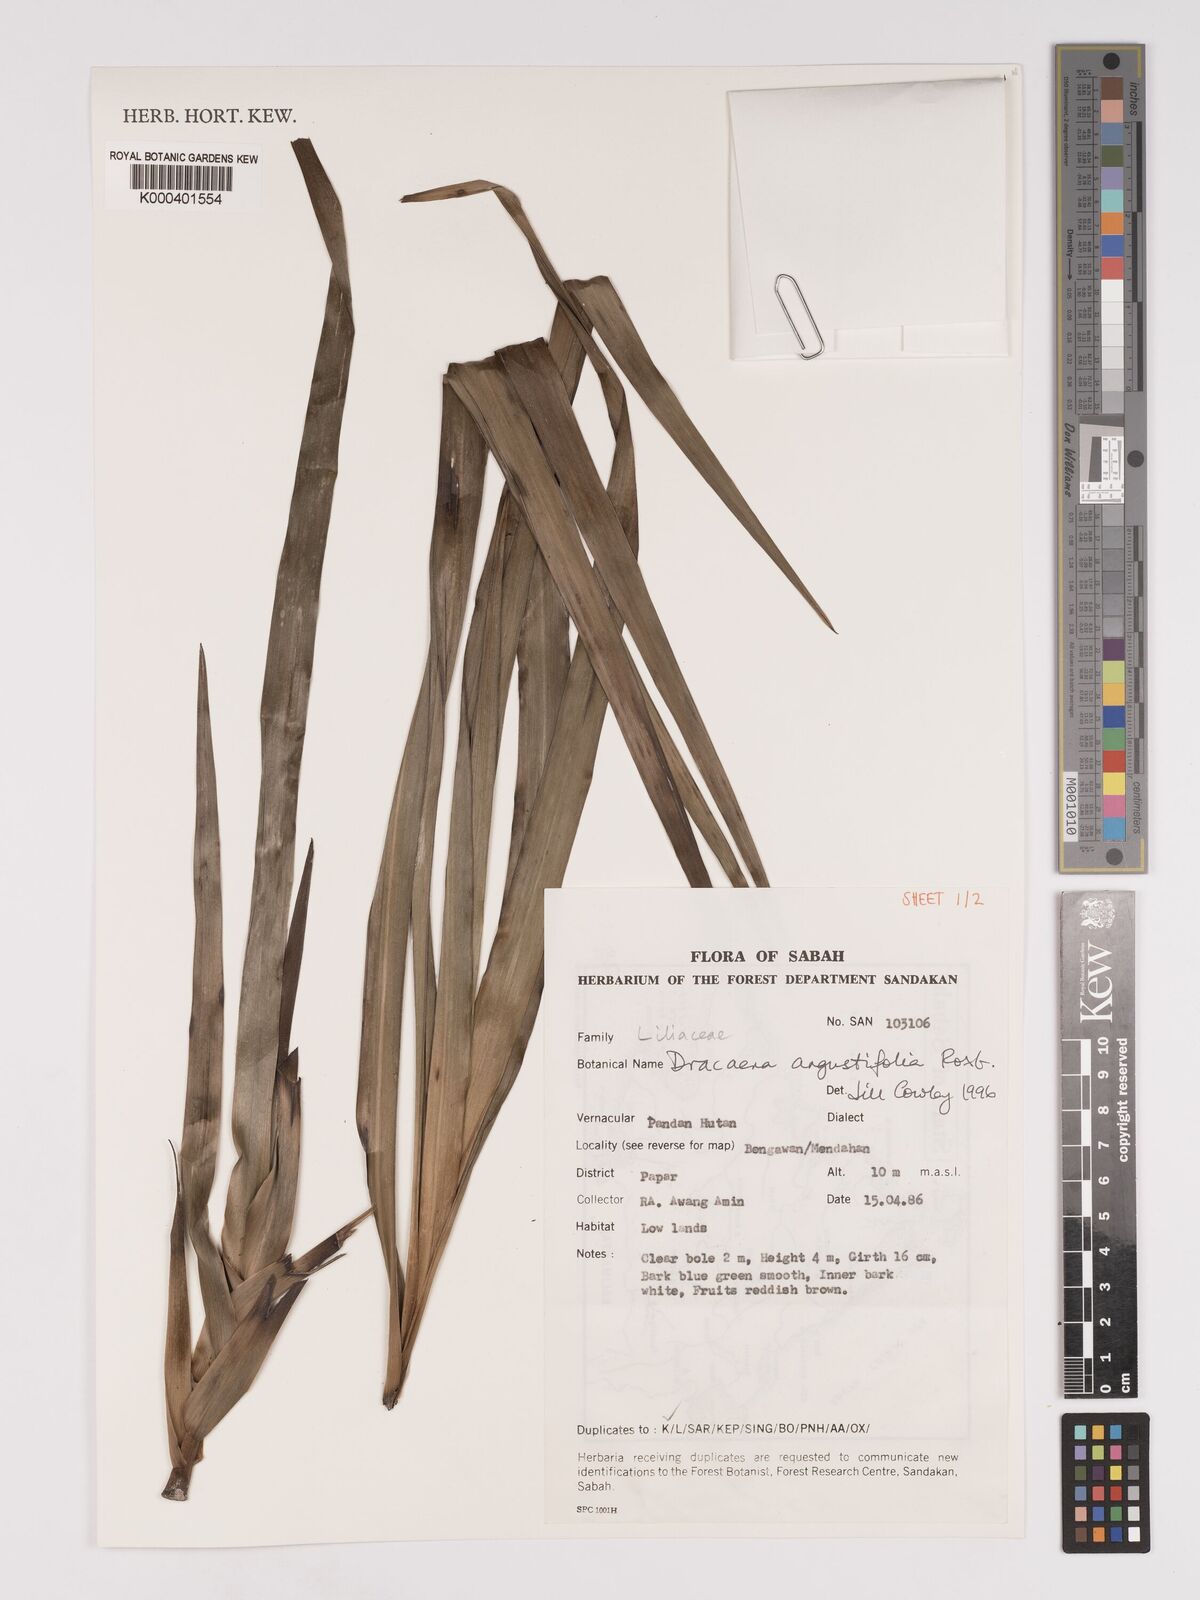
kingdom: Plantae
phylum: Tracheophyta
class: Liliopsida
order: Asparagales
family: Asparagaceae
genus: Dracaena
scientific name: Dracaena angustifolia
